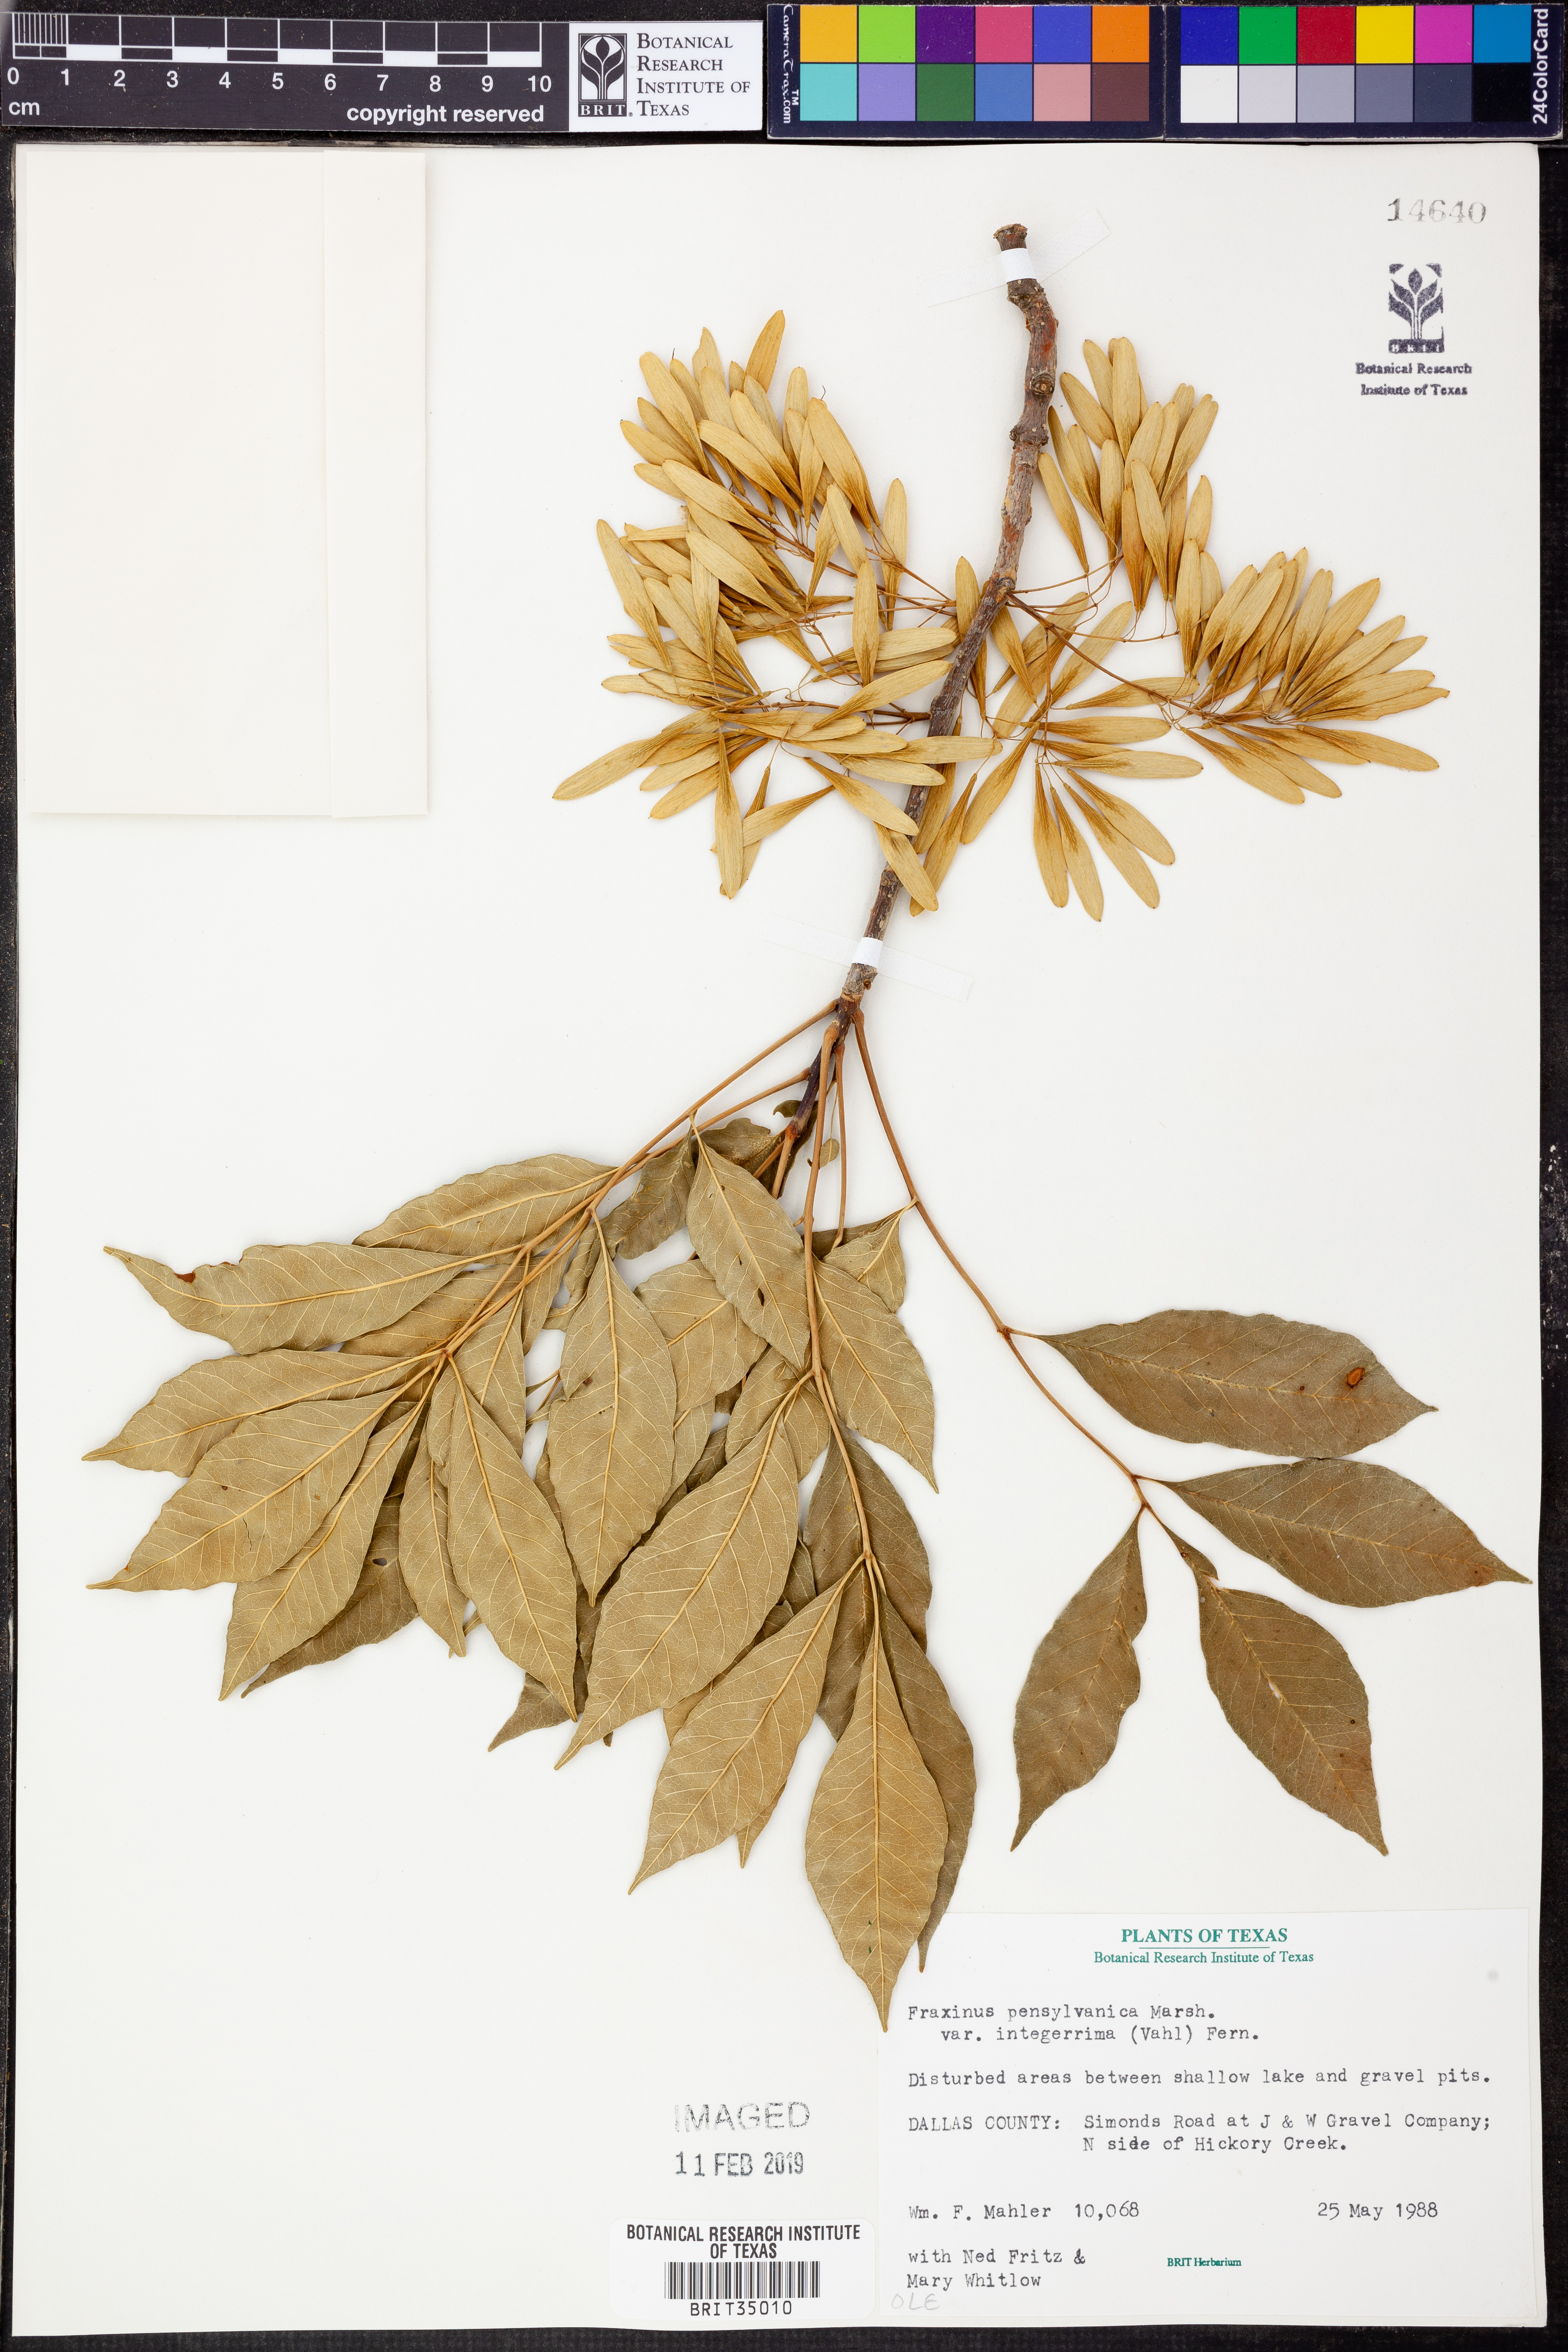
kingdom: Plantae
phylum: Tracheophyta
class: Magnoliopsida
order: Lamiales
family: Oleaceae
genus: Fraxinus
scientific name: Fraxinus pennsylvanica
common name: Green ash
